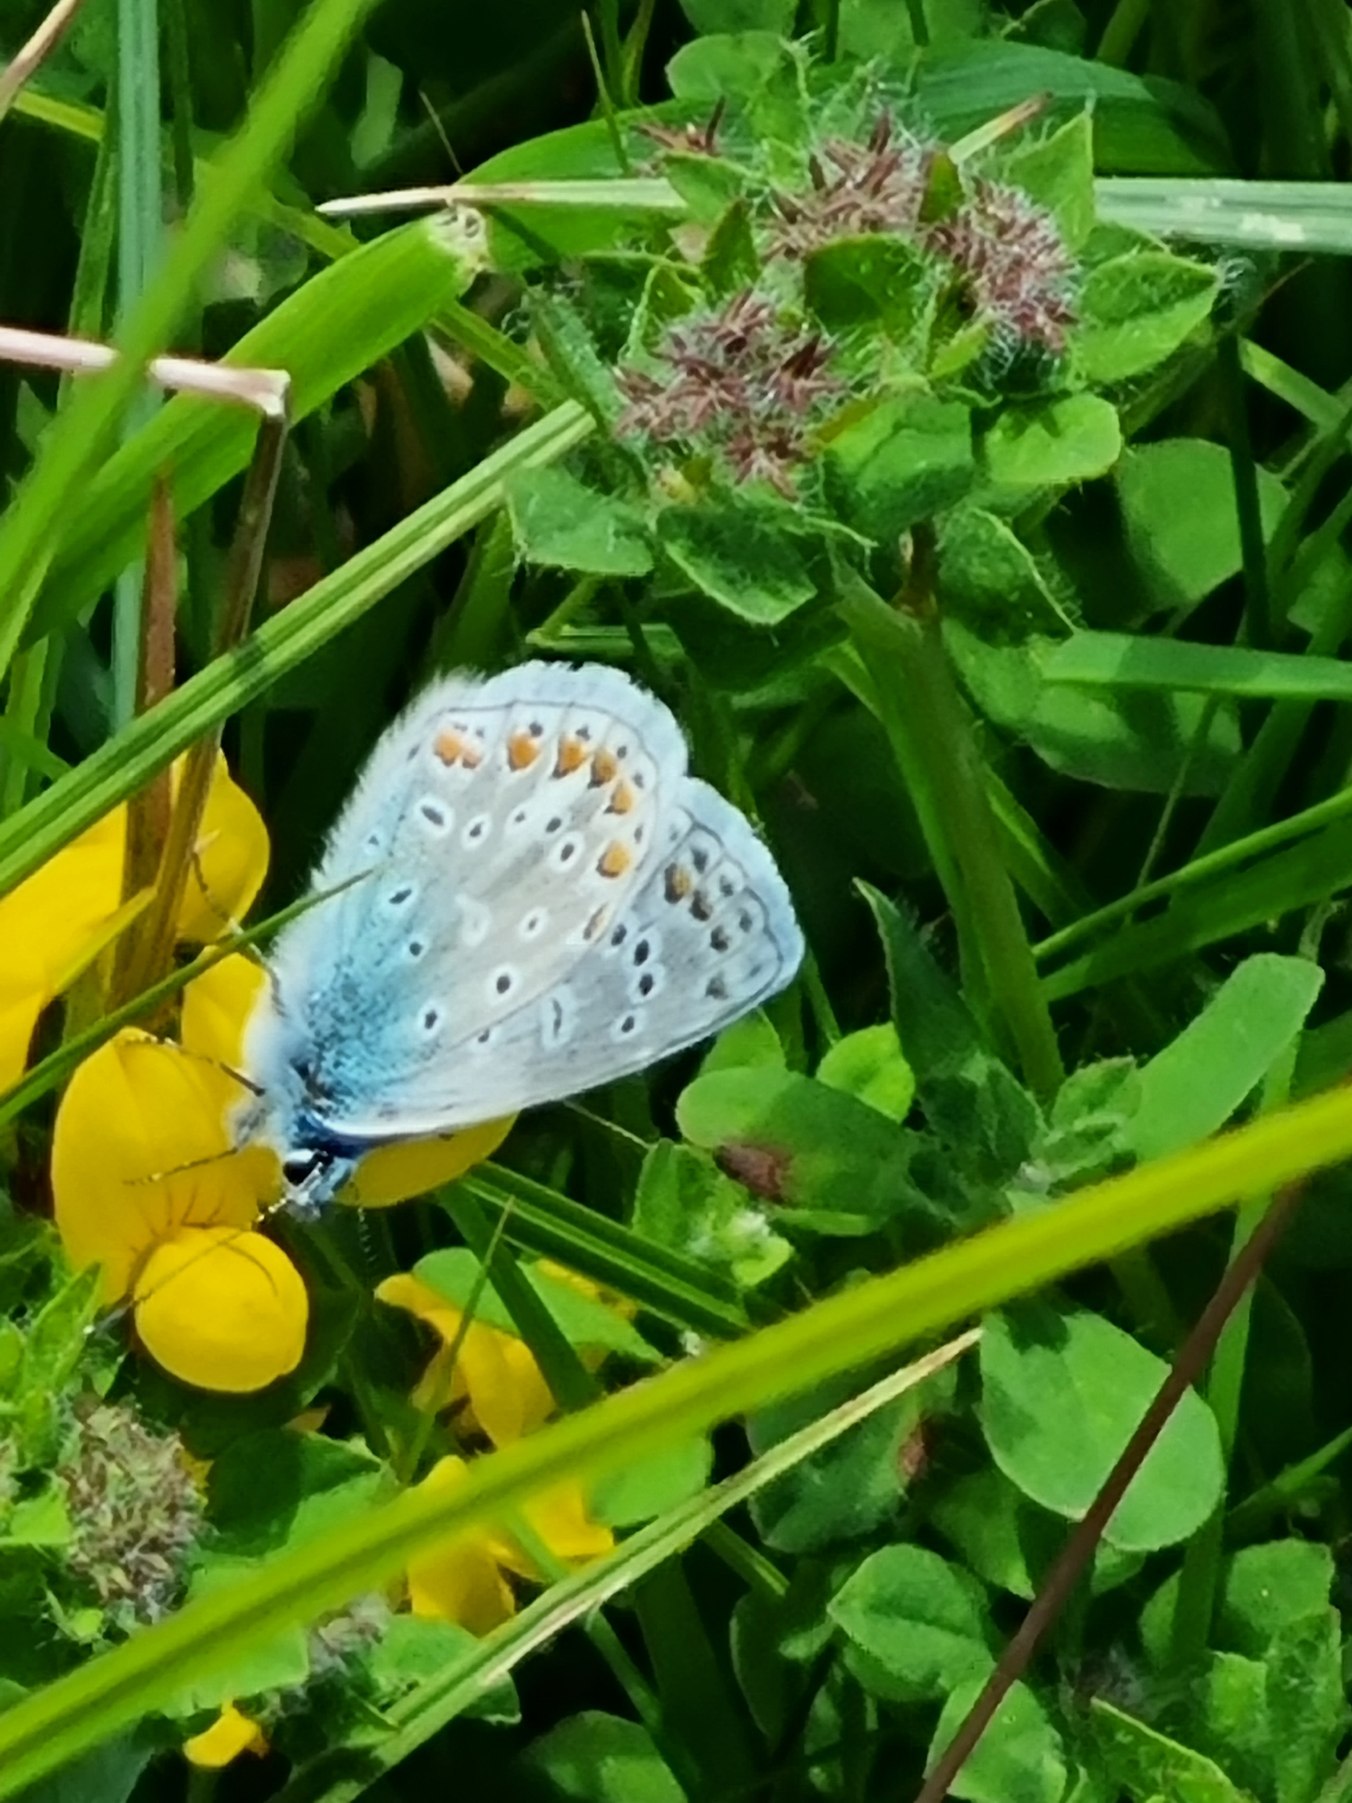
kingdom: Animalia
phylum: Arthropoda
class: Insecta
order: Lepidoptera
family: Lycaenidae
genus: Polyommatus
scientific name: Polyommatus icarus
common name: Almindelig blåfugl
